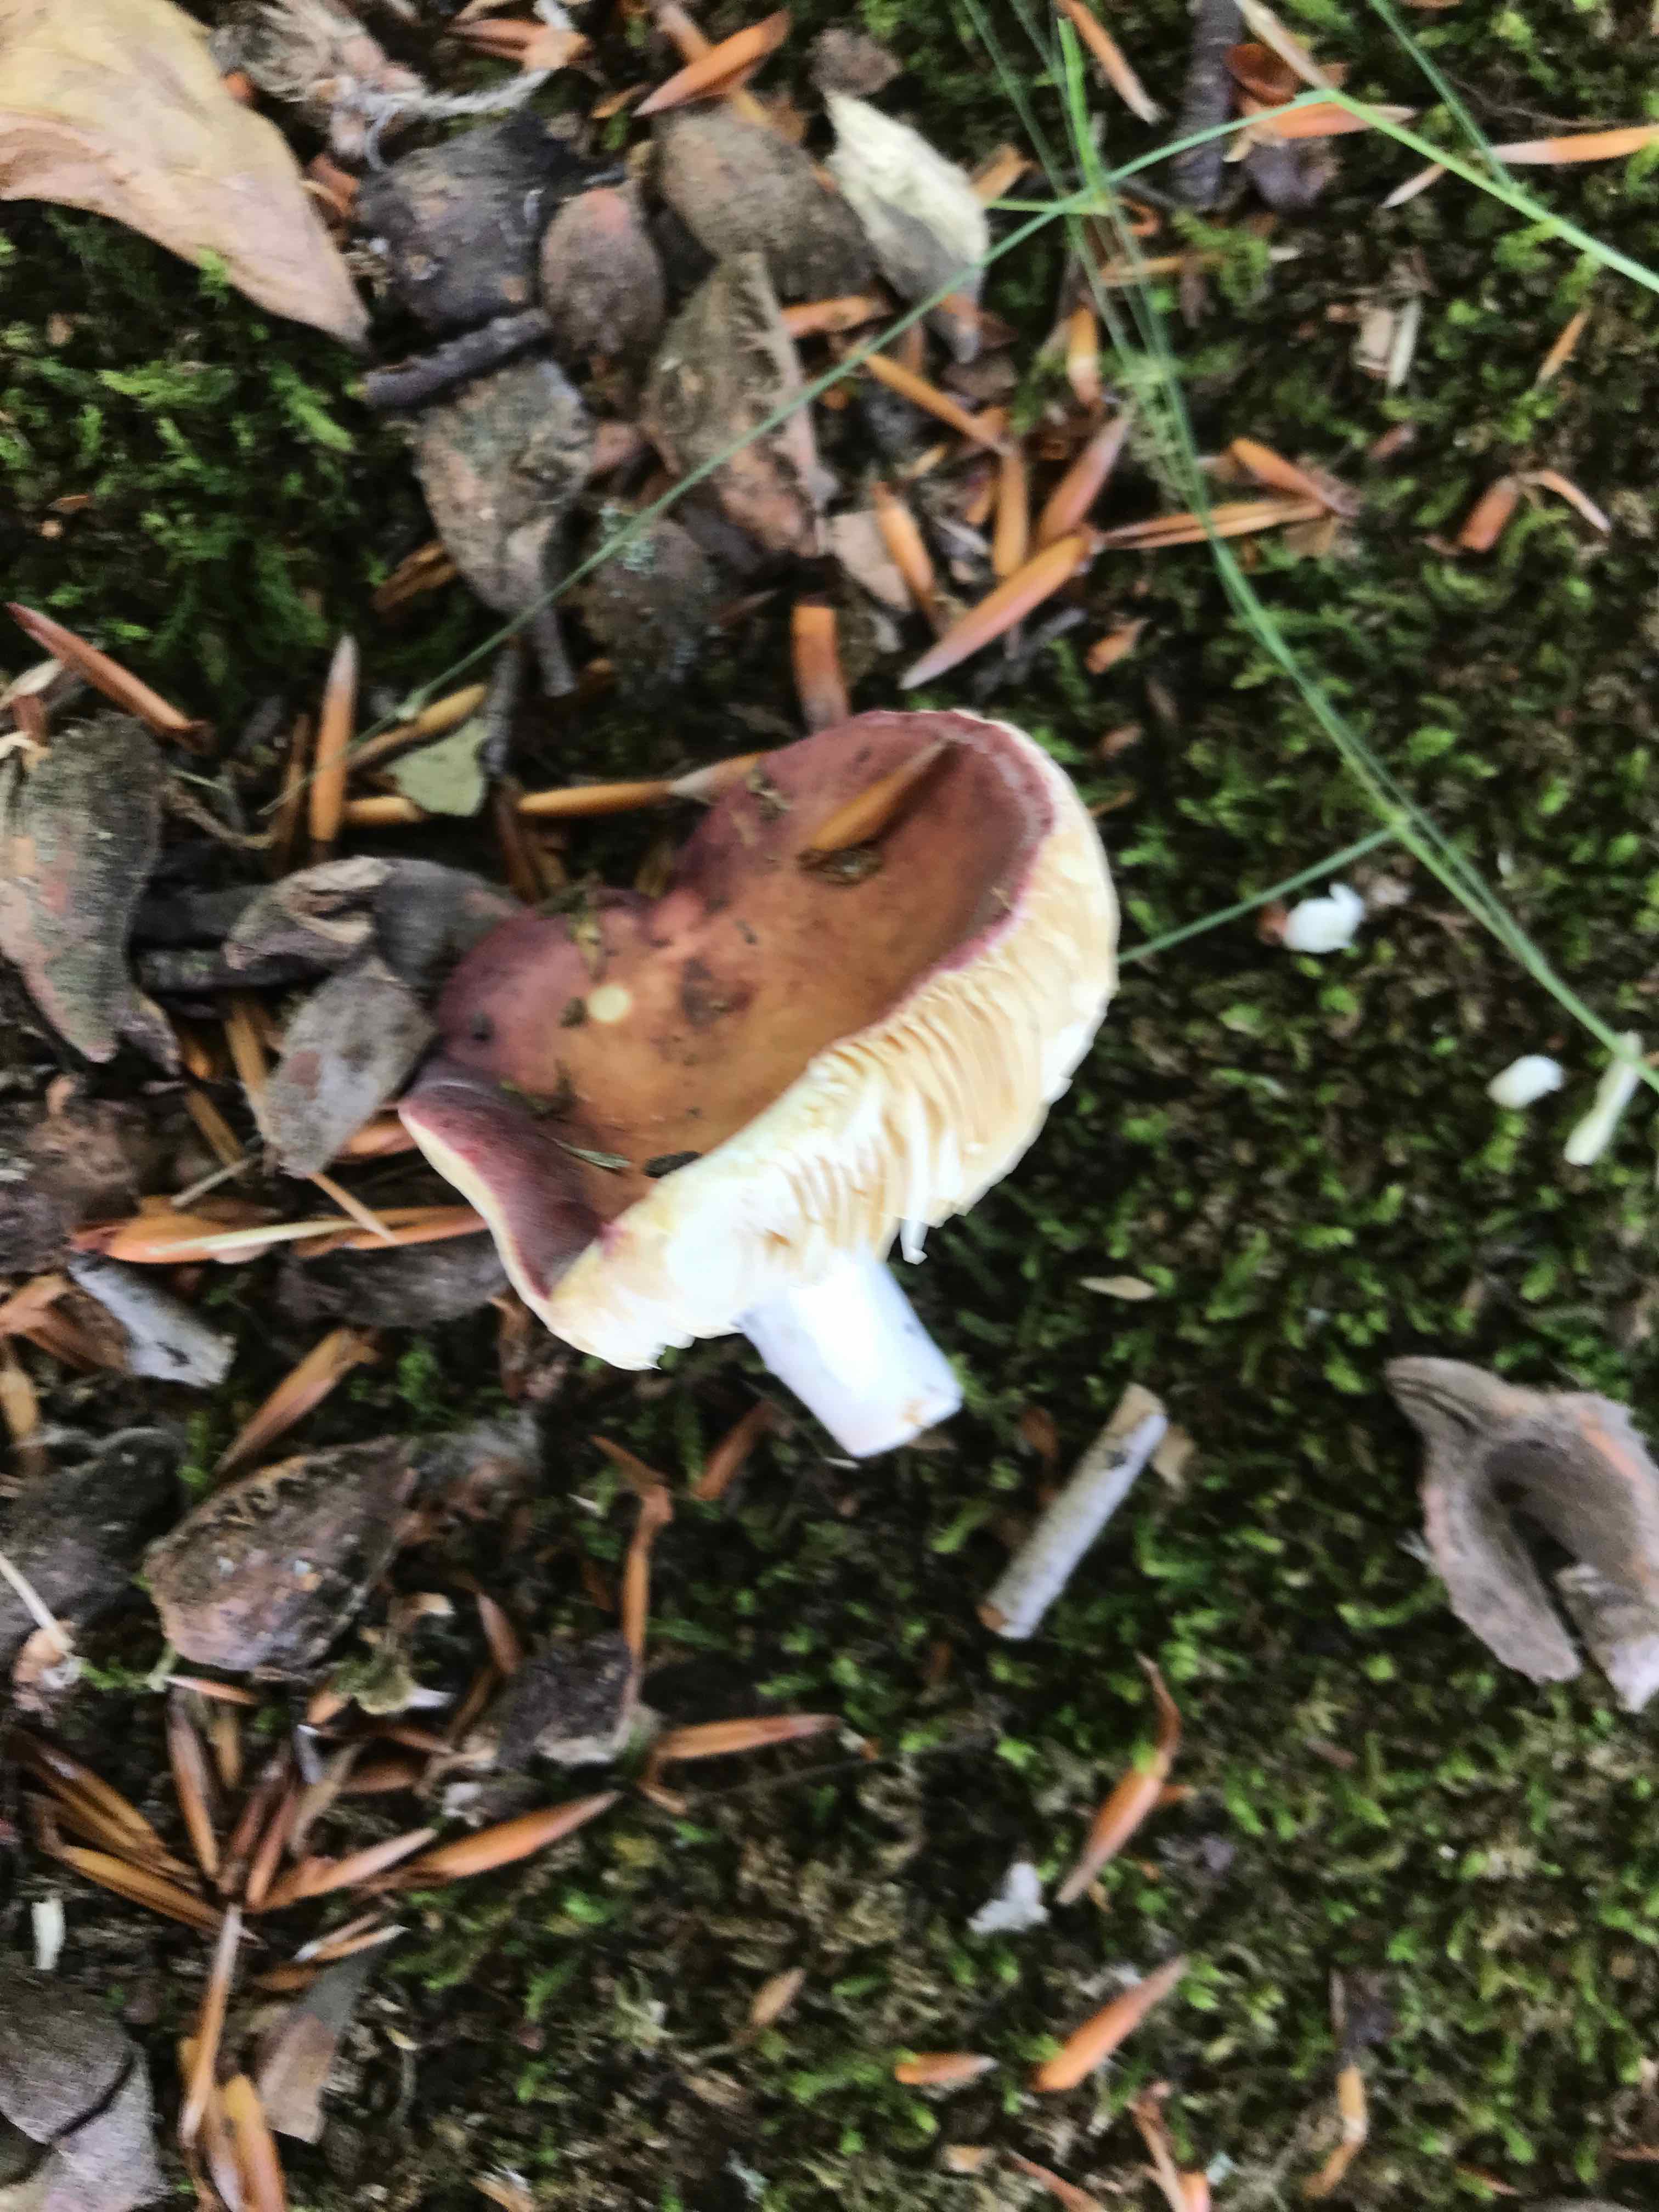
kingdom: Fungi
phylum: Basidiomycota
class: Agaricomycetes
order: Russulales
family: Russulaceae
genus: Russula
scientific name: Russula aurora
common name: rosa skørhat
